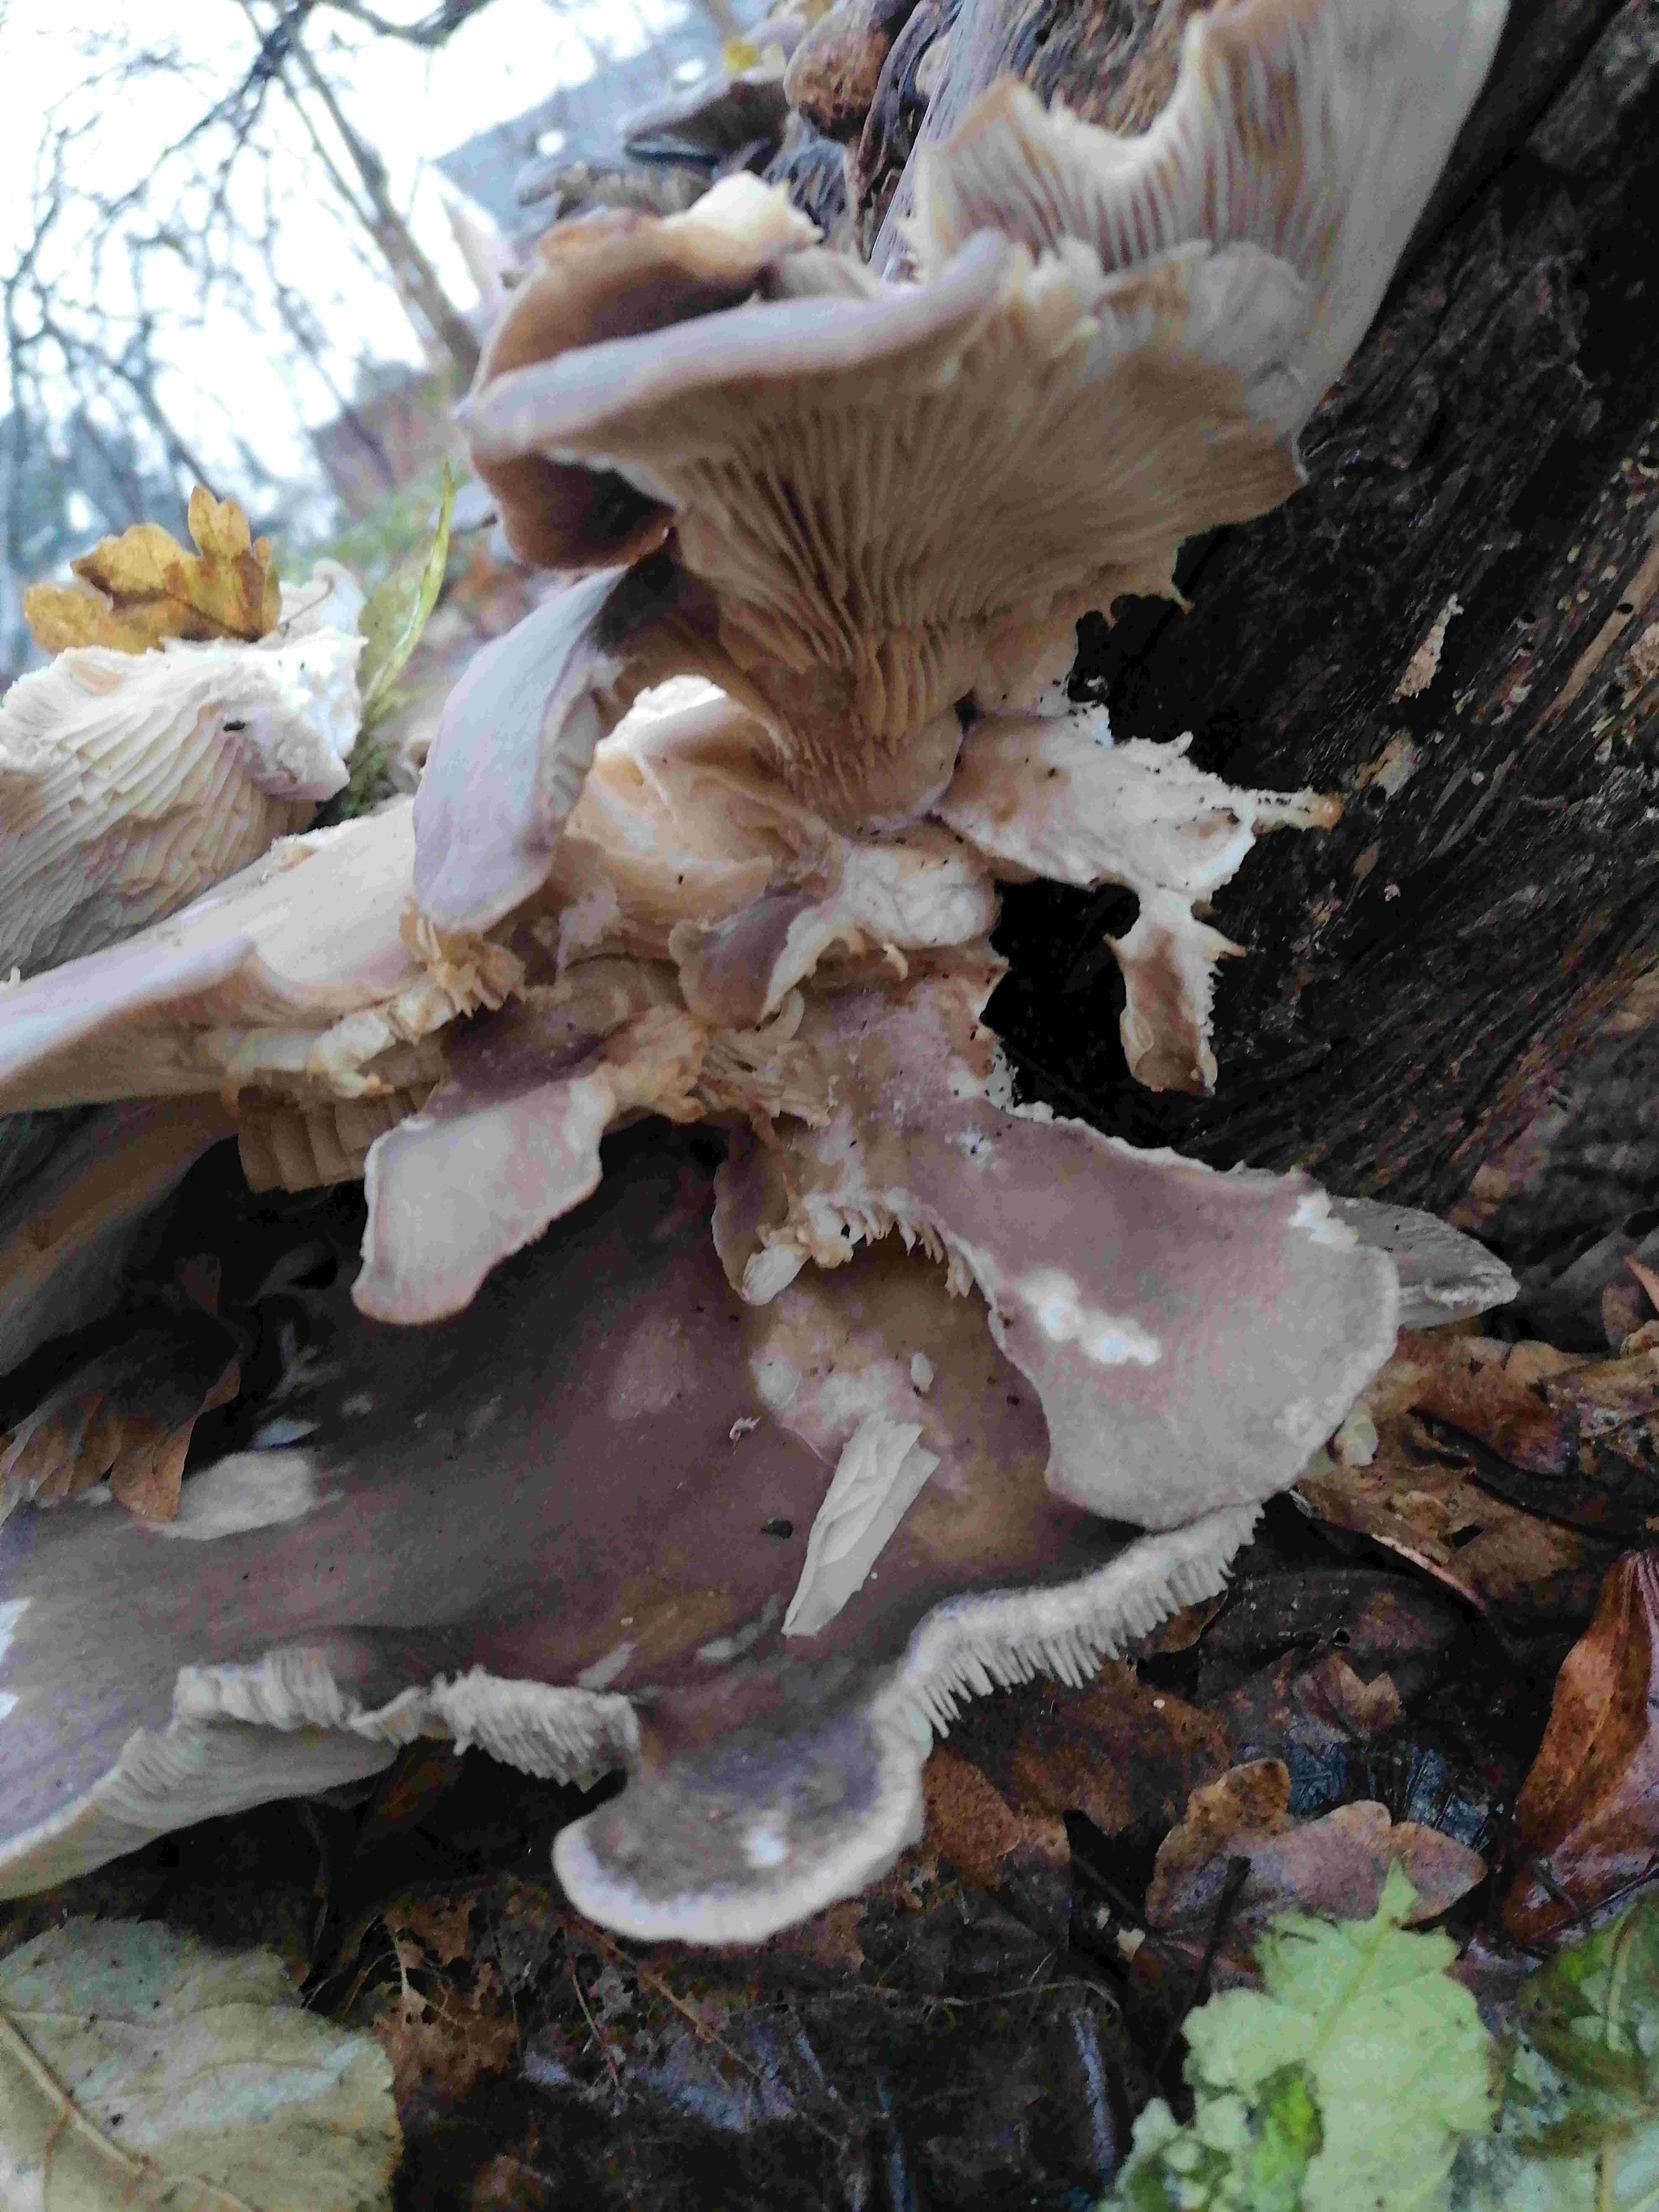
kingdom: Fungi
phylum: Basidiomycota
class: Agaricomycetes
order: Agaricales
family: Pleurotaceae
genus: Pleurotus
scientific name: Pleurotus ostreatus
